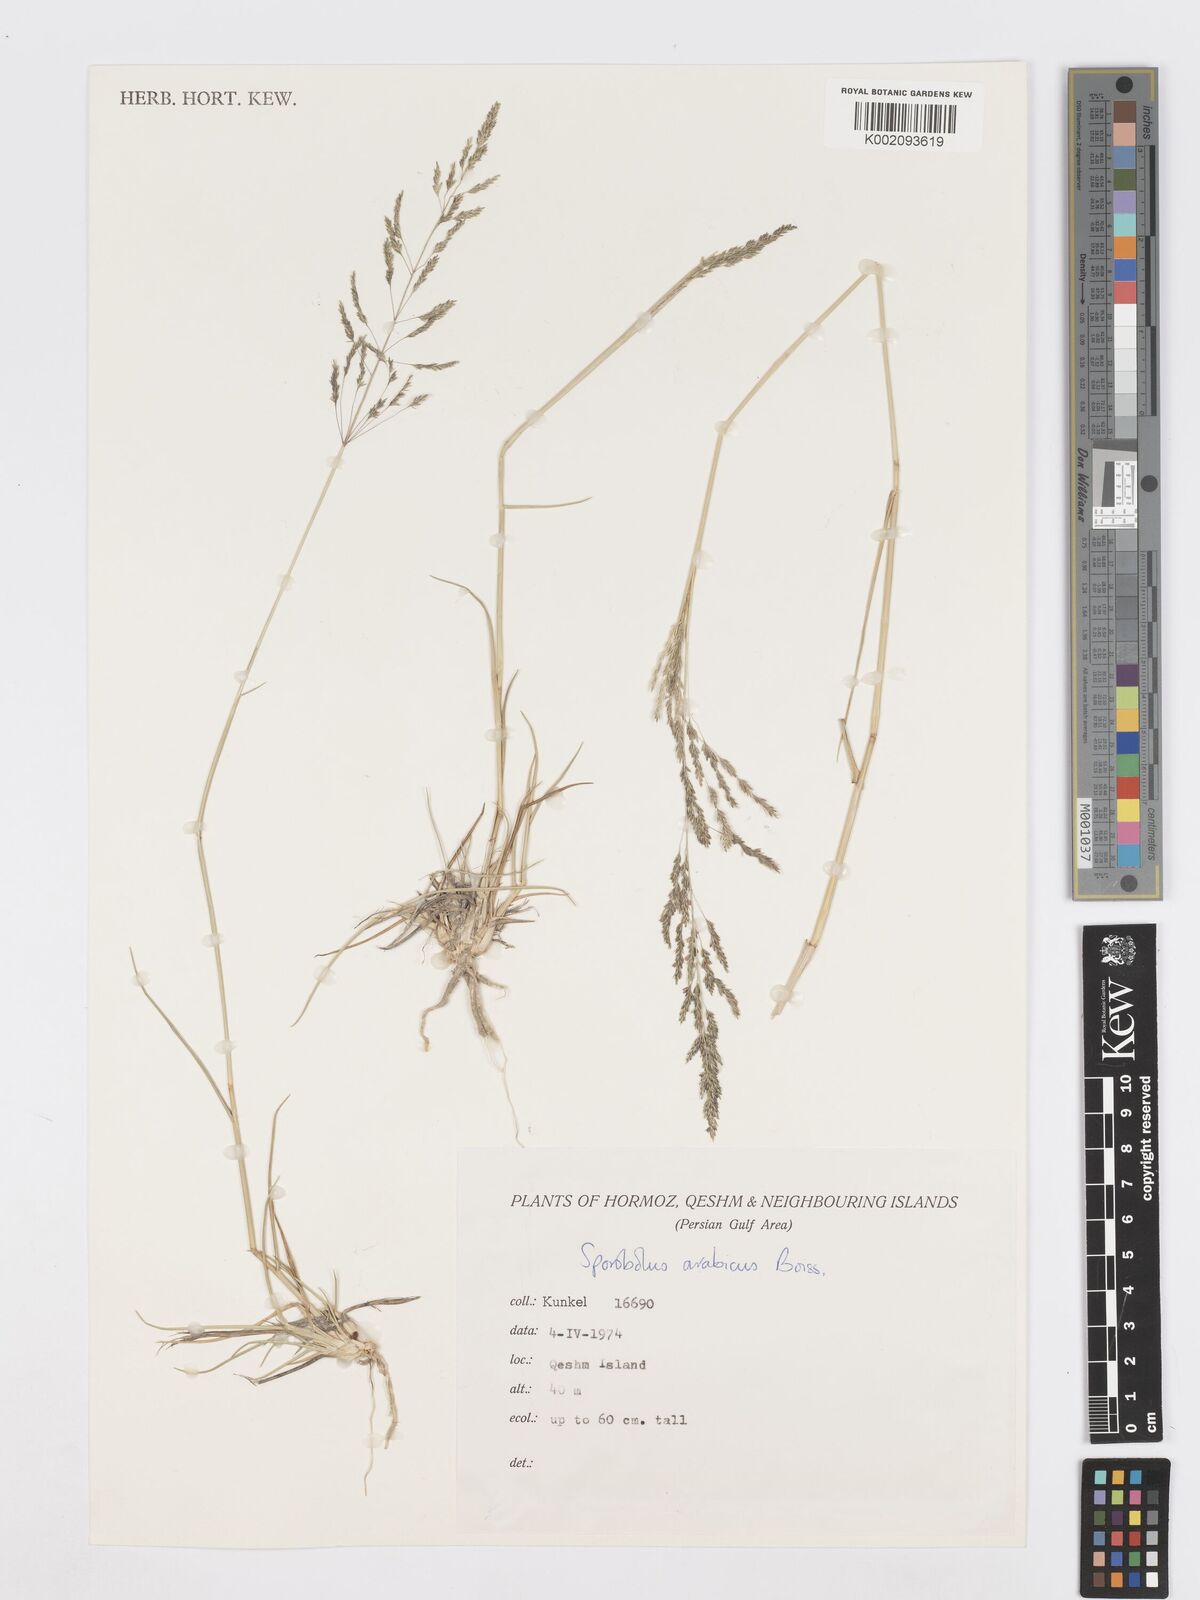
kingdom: Plantae
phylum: Tracheophyta
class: Liliopsida
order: Poales
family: Poaceae
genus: Sporobolus
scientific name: Sporobolus ioclados
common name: Pan dropseed
